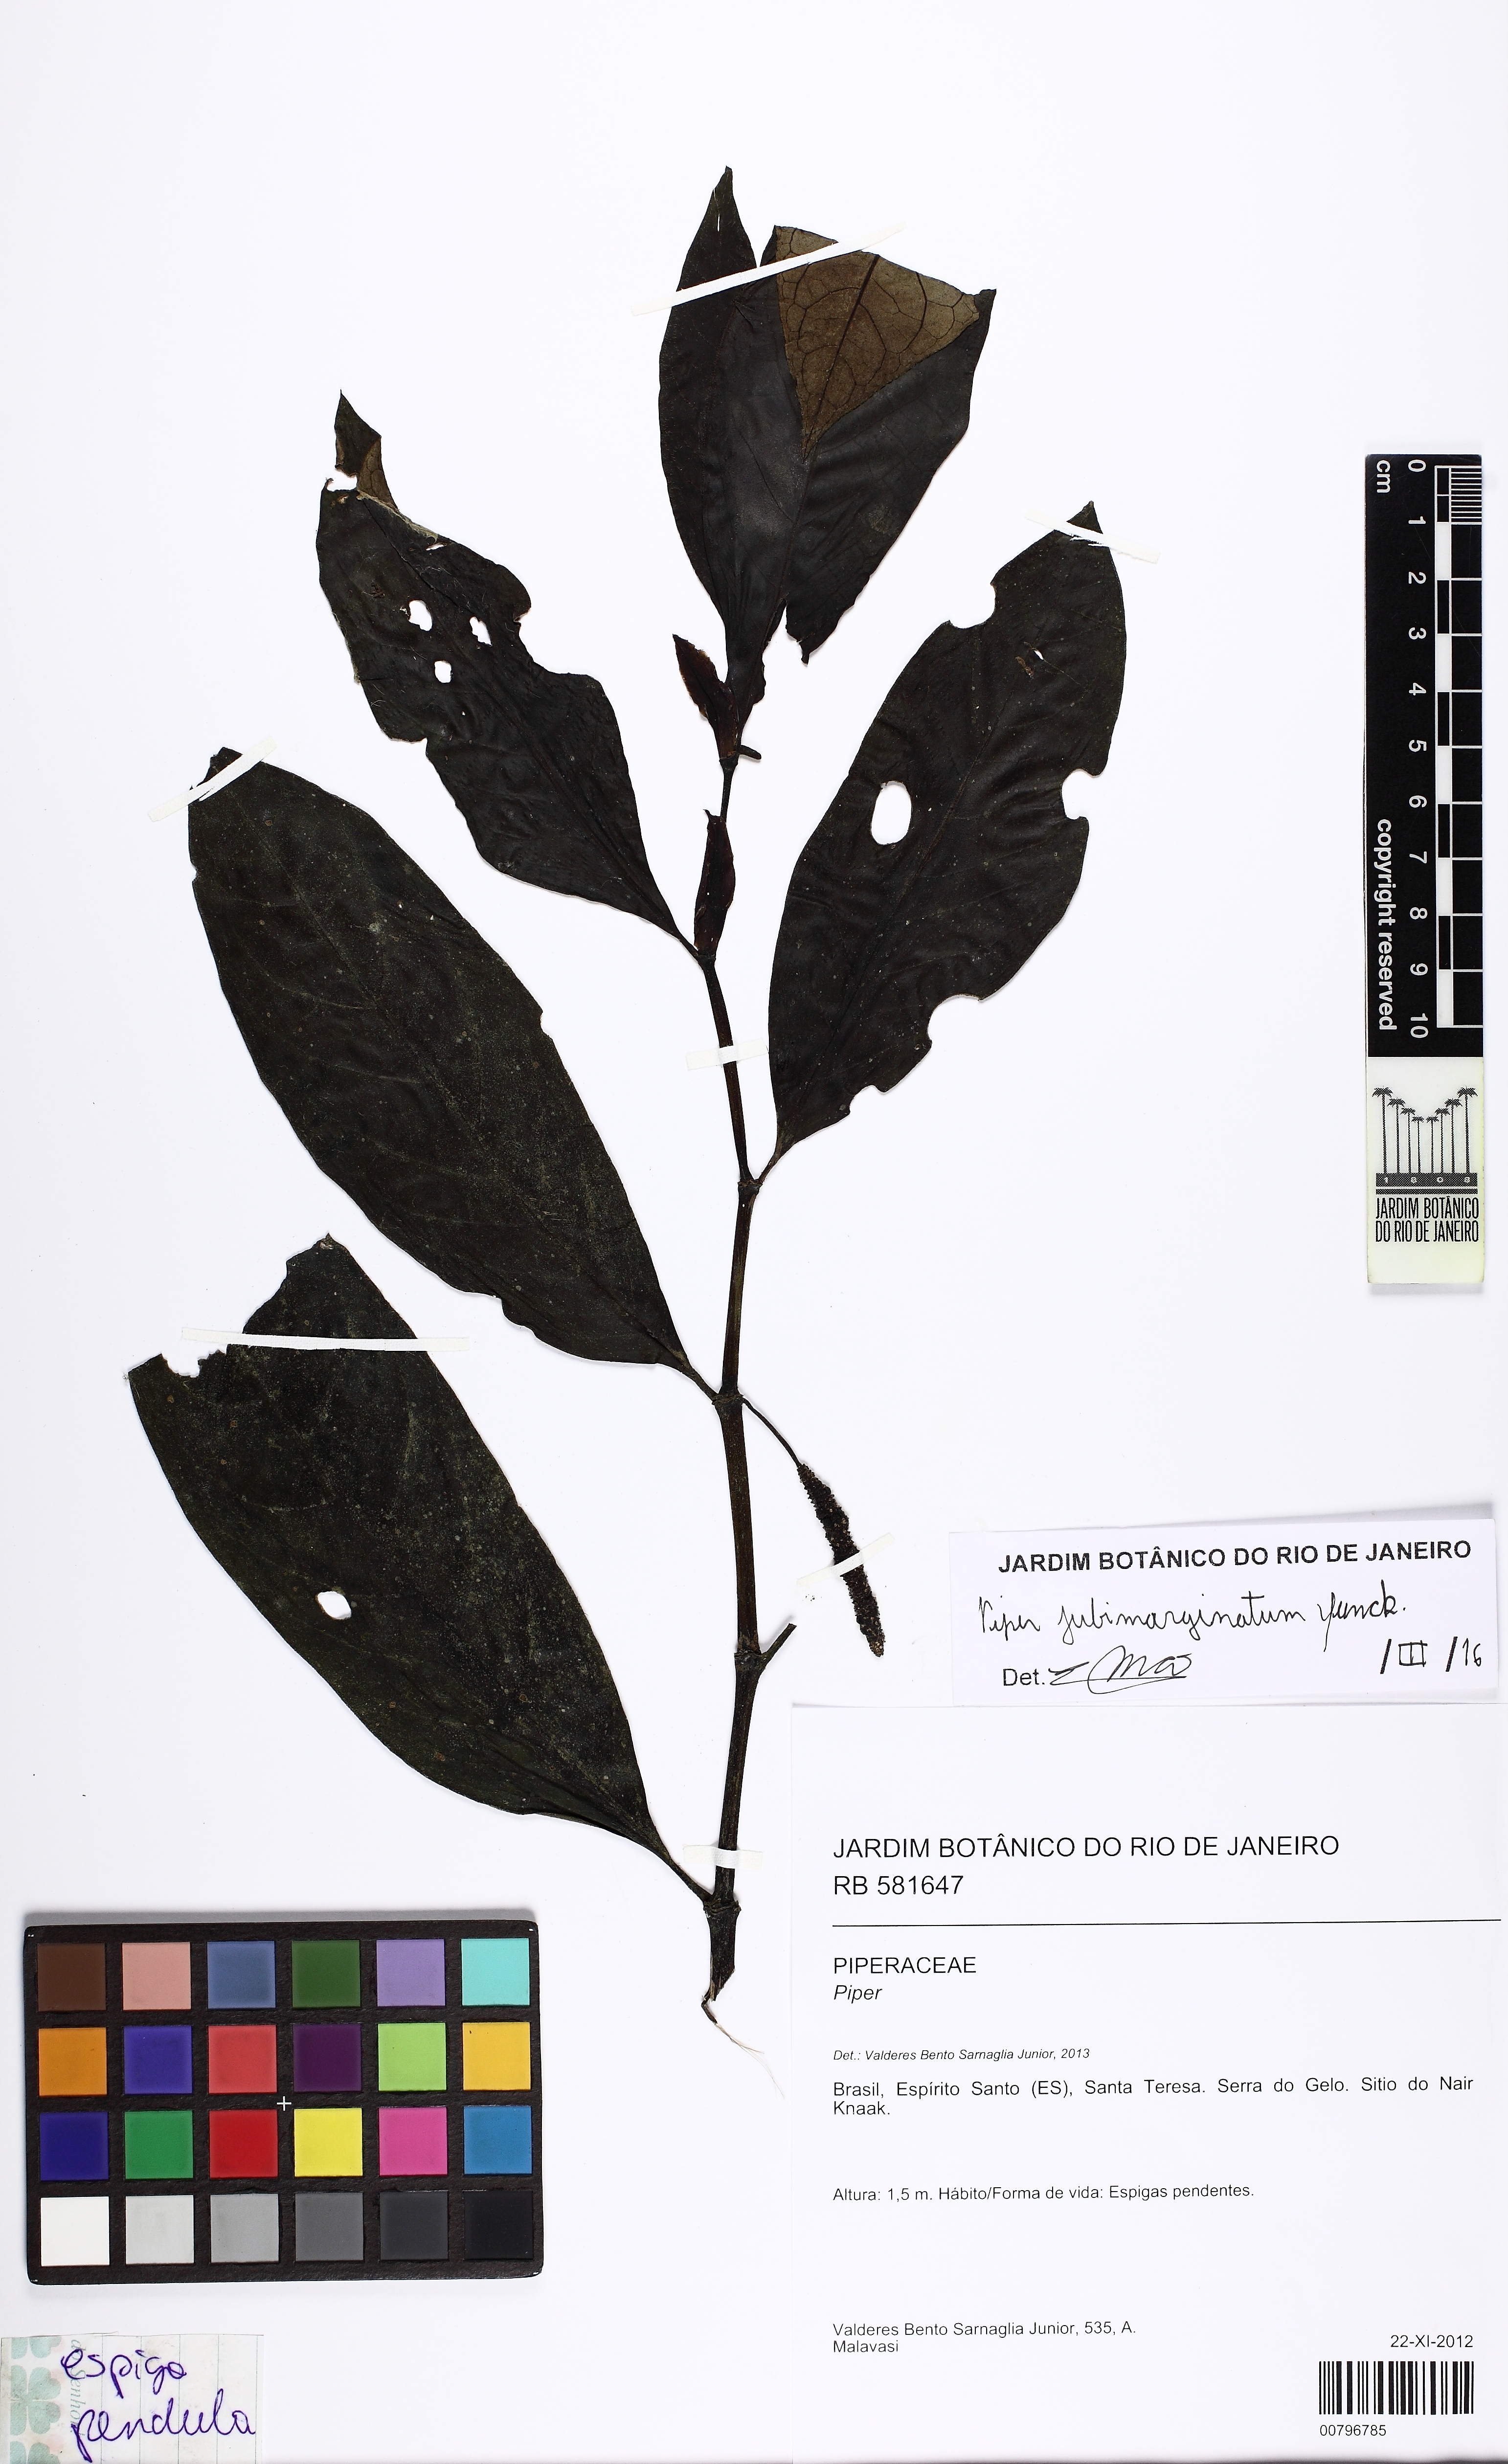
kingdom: Plantae
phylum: Tracheophyta
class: Magnoliopsida
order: Piperales
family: Piperaceae
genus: Piper
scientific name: Piper jubimarginatum
